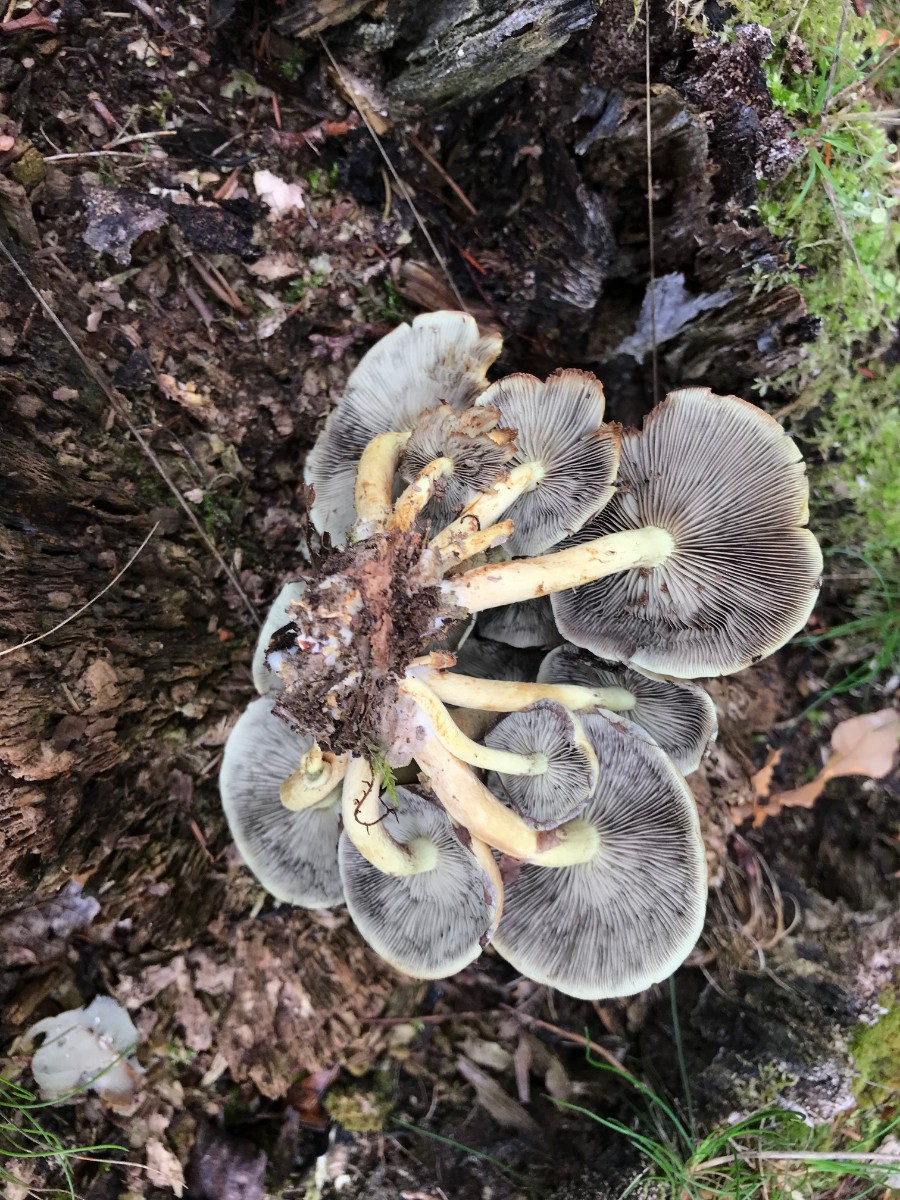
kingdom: Fungi
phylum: Basidiomycota
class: Agaricomycetes
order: Agaricales
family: Strophariaceae
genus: Hypholoma
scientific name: Hypholoma fasciculare
